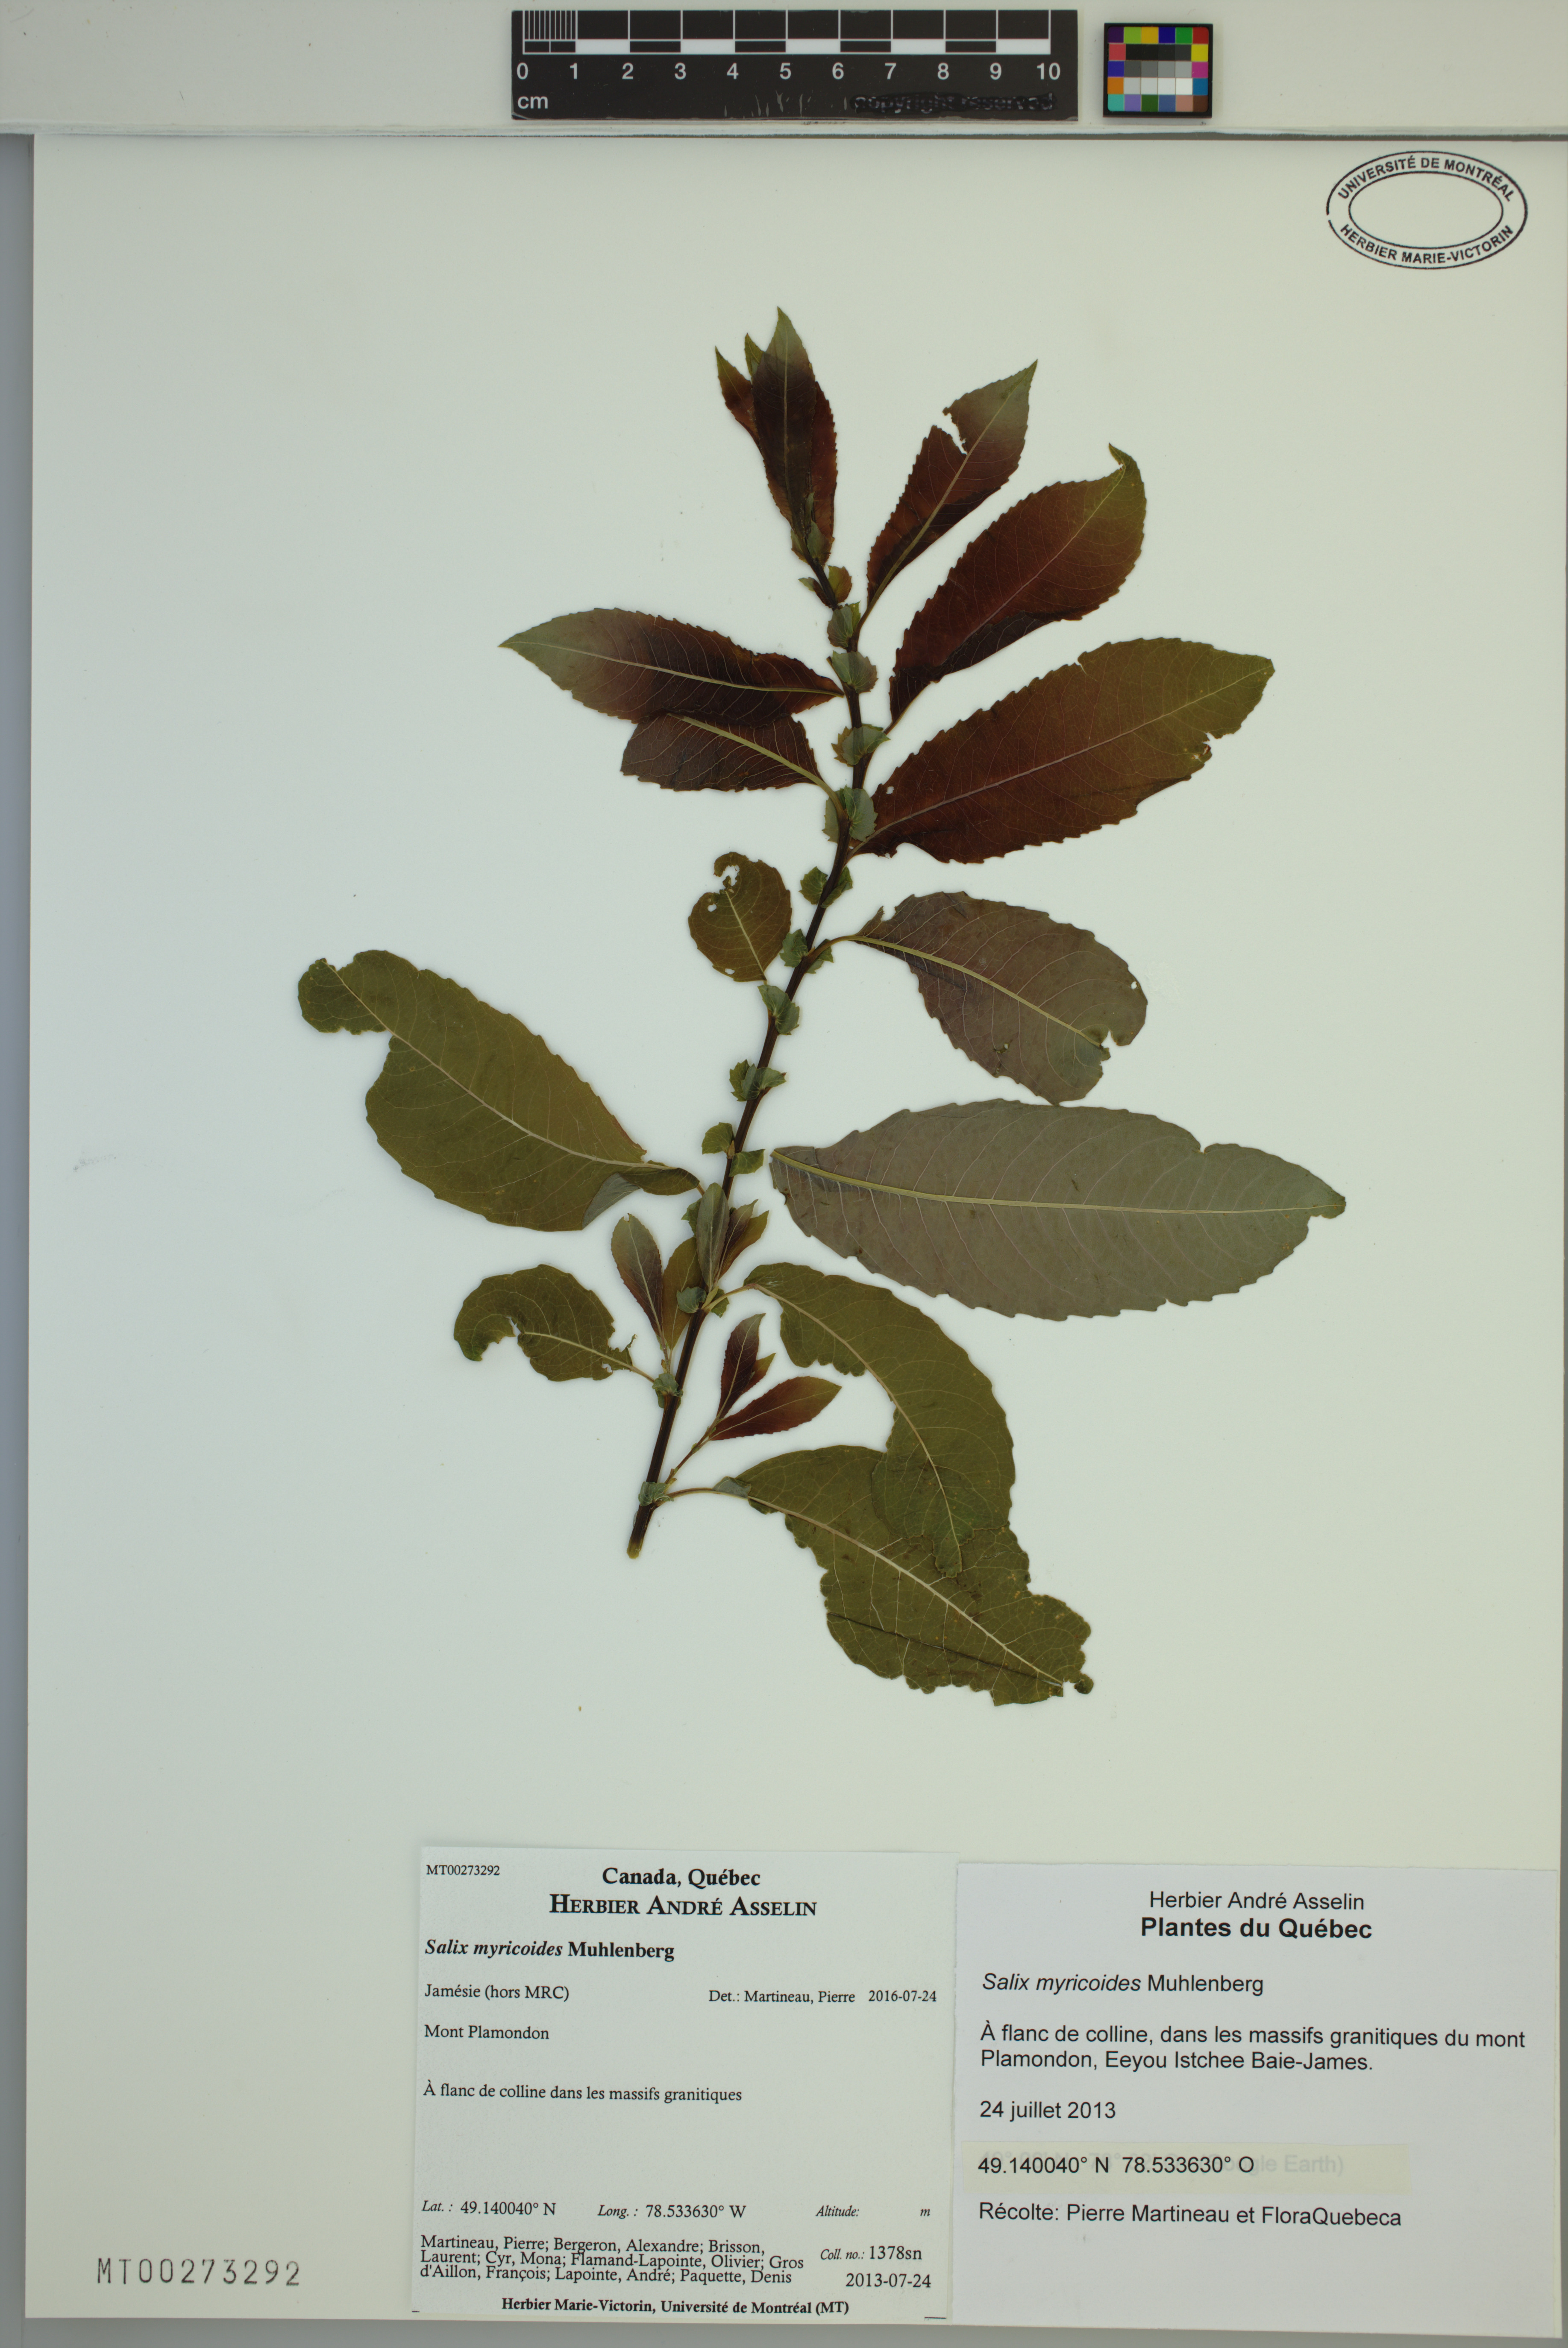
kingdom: Plantae
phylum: Tracheophyta
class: Magnoliopsida
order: Malpighiales
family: Salicaceae
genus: Salix
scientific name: Salix myricoides
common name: Bayberry willow
